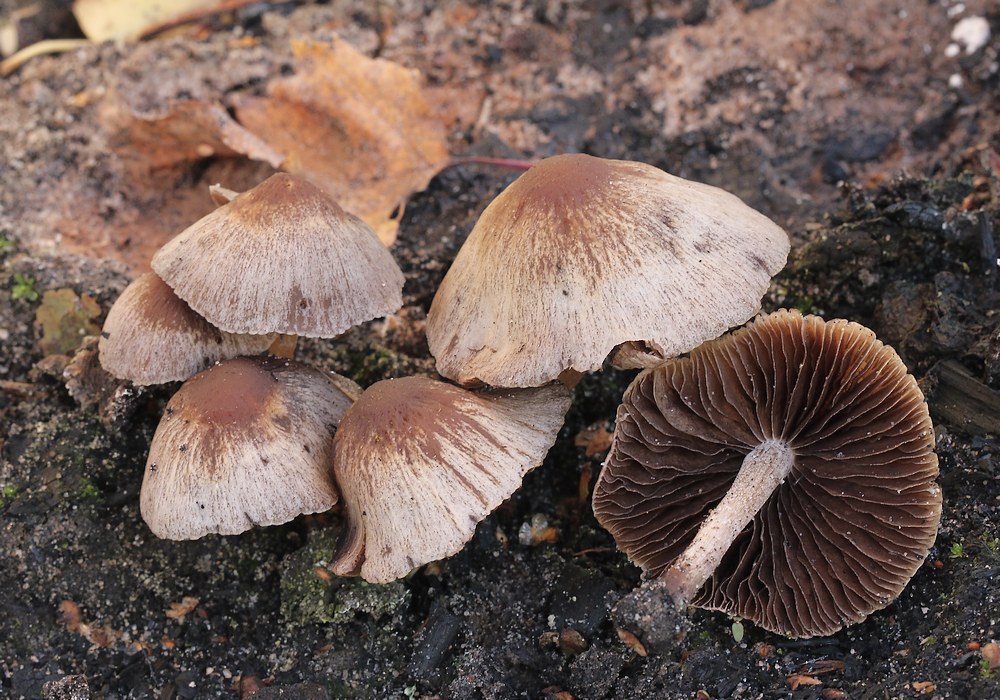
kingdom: Fungi
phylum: Basidiomycota
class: Agaricomycetes
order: Agaricales
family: Psathyrellaceae
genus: Psathyrella
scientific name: Psathyrella
